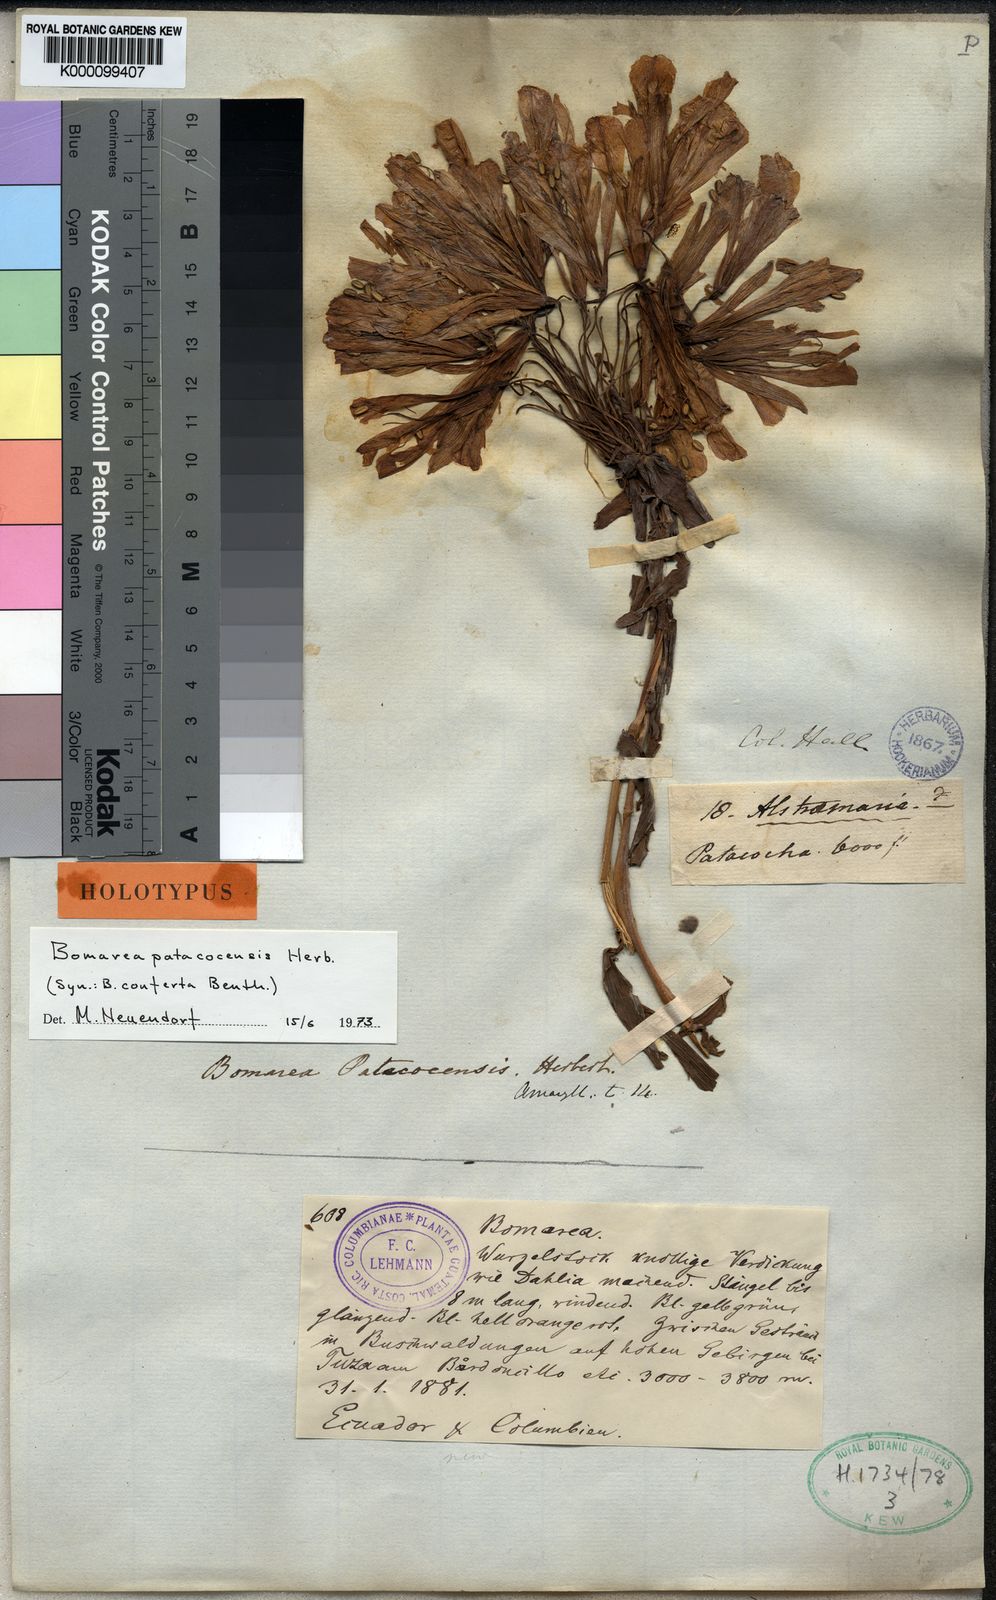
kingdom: Plantae
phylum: Tracheophyta
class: Liliopsida
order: Liliales
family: Alstroemeriaceae
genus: Bomarea
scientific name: Bomarea patacocensis
